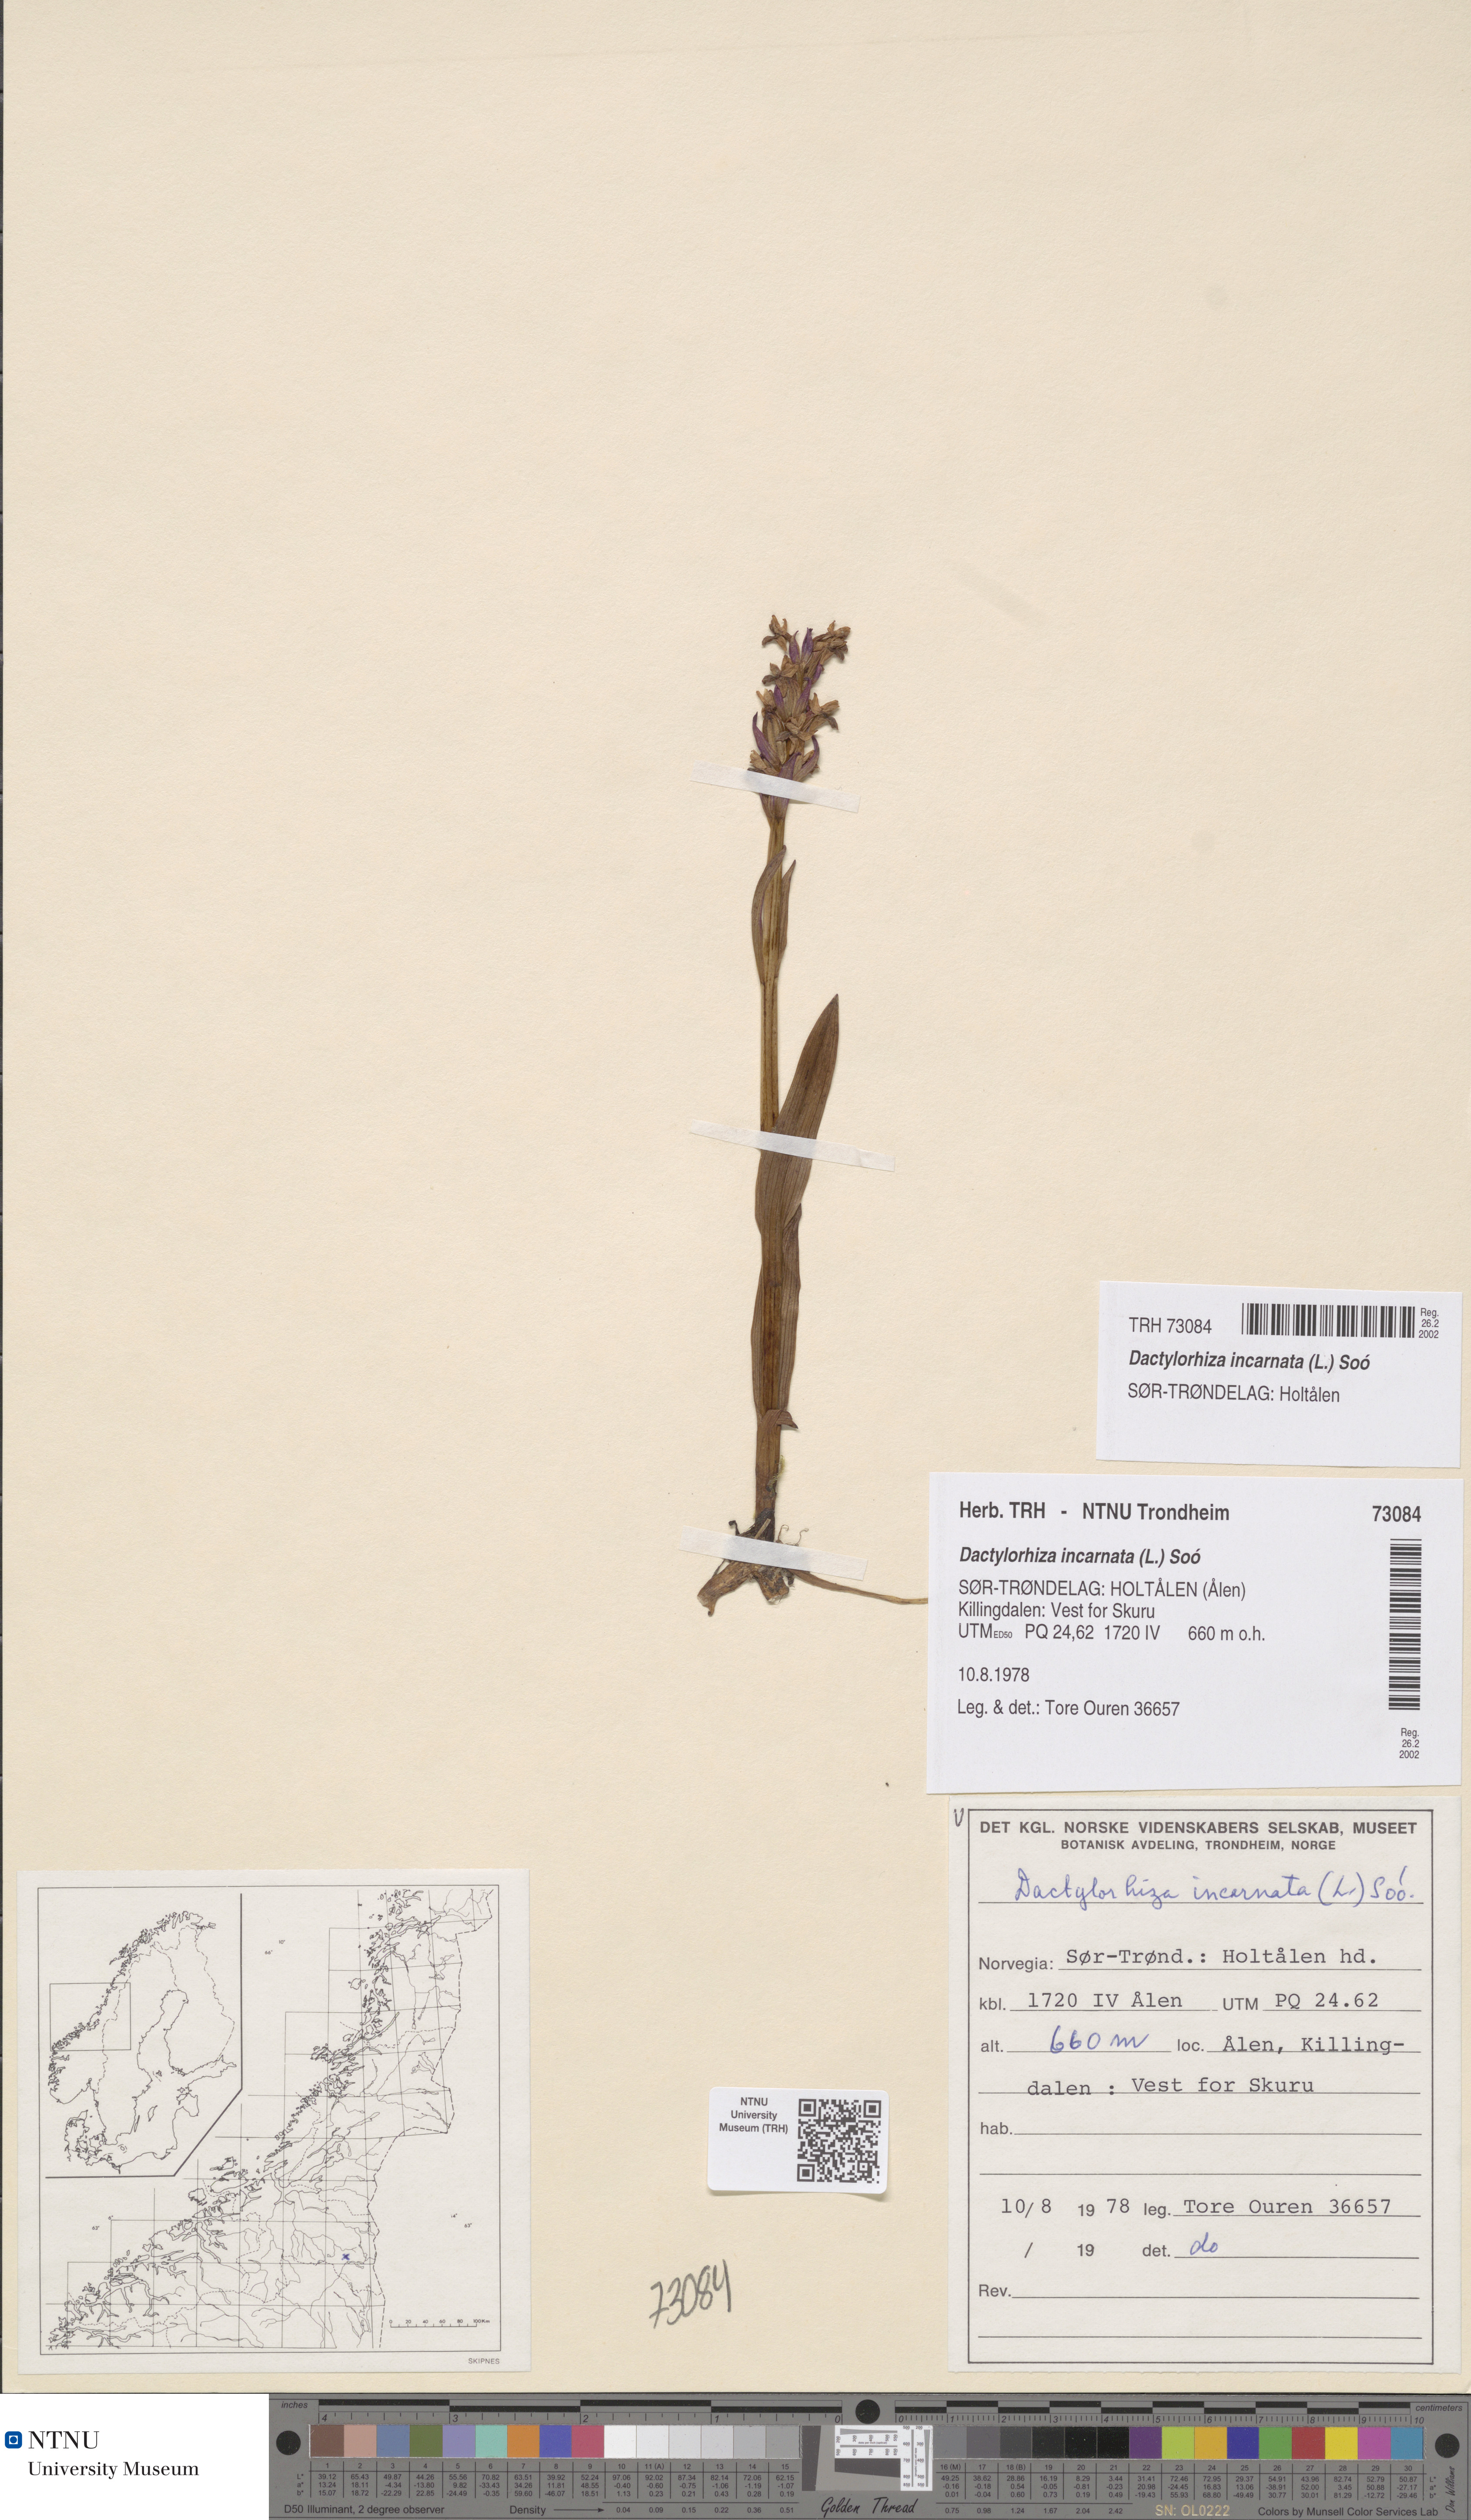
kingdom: Plantae
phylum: Tracheophyta
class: Liliopsida
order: Asparagales
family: Orchidaceae
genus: Dactylorhiza
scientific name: Dactylorhiza incarnata
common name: Early marsh-orchid
